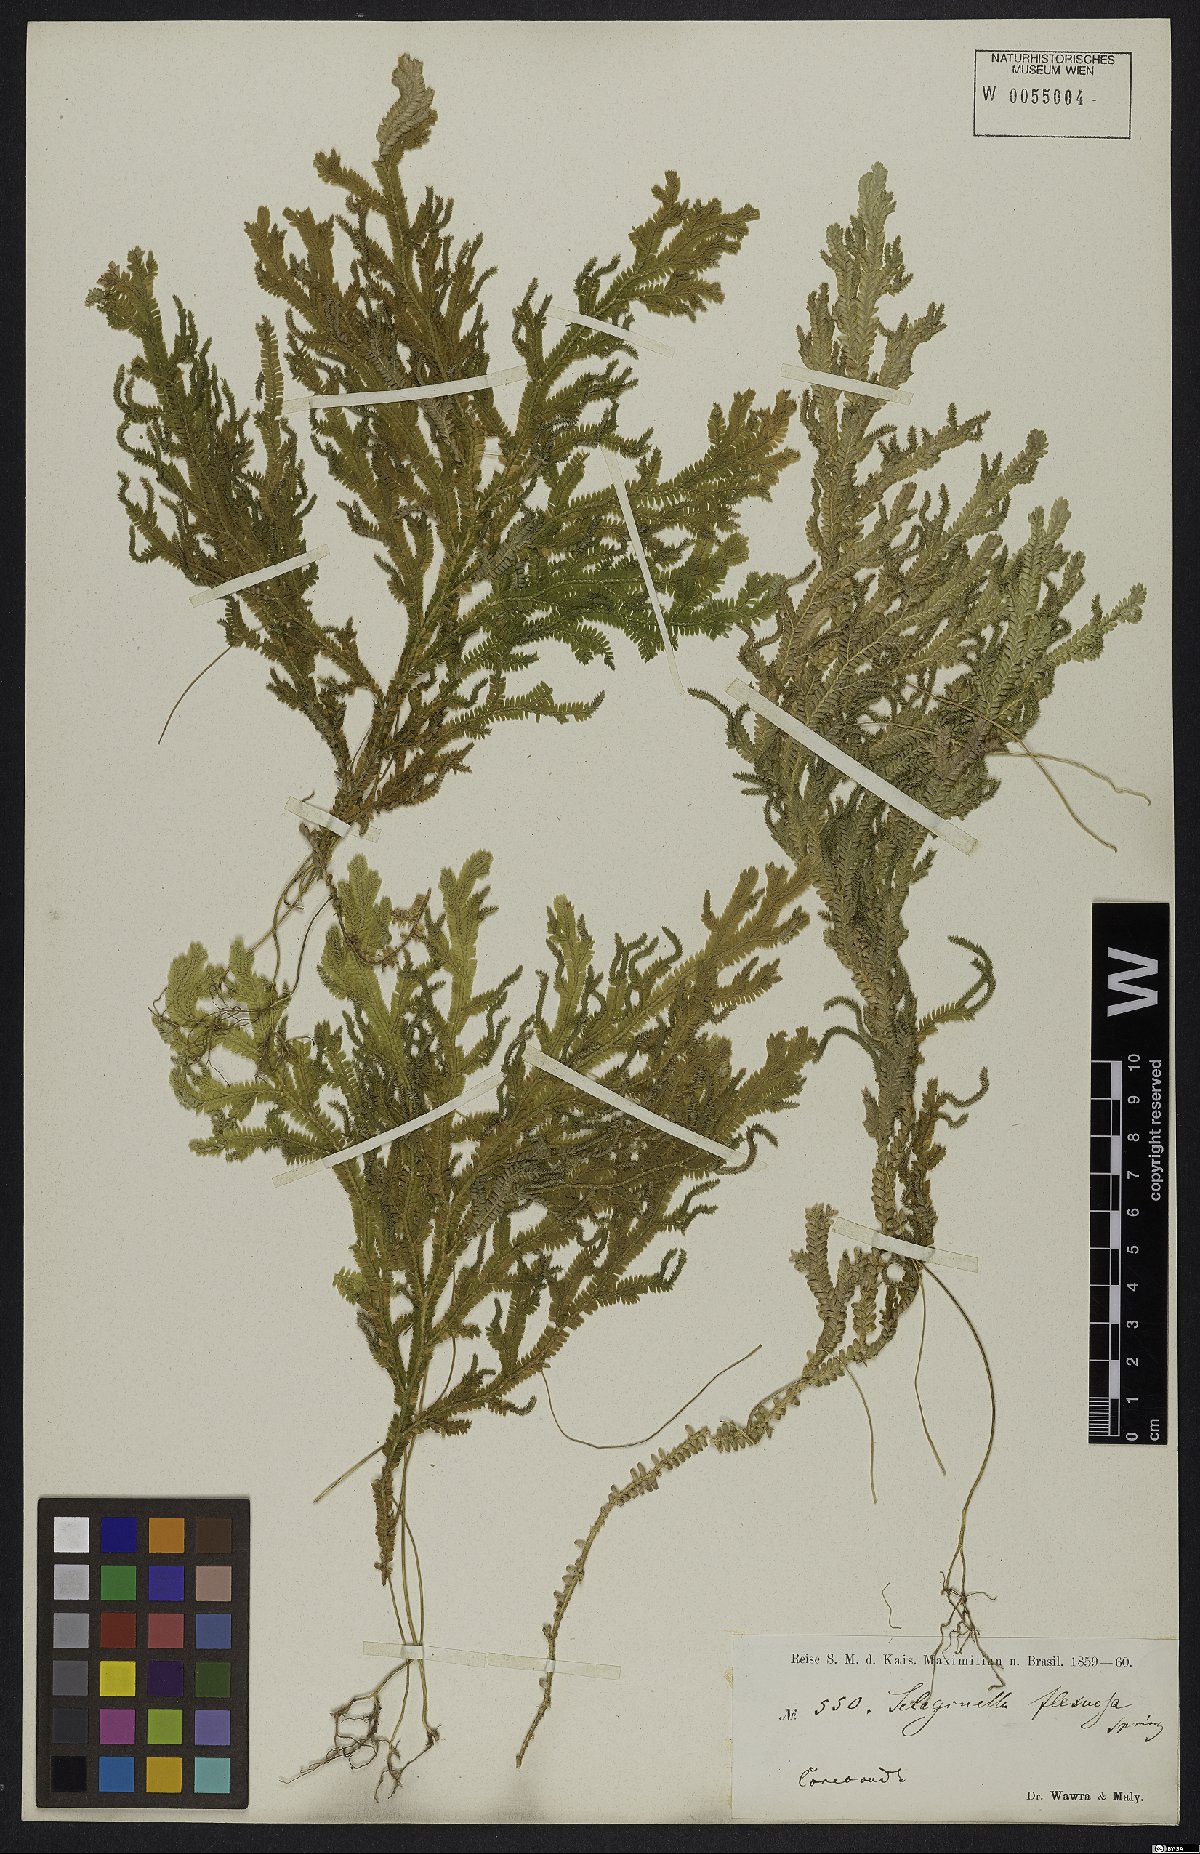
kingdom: Plantae
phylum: Tracheophyta
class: Lycopodiopsida
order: Selaginellales
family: Selaginellaceae
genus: Selaginella
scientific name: Selaginella flexuosa
